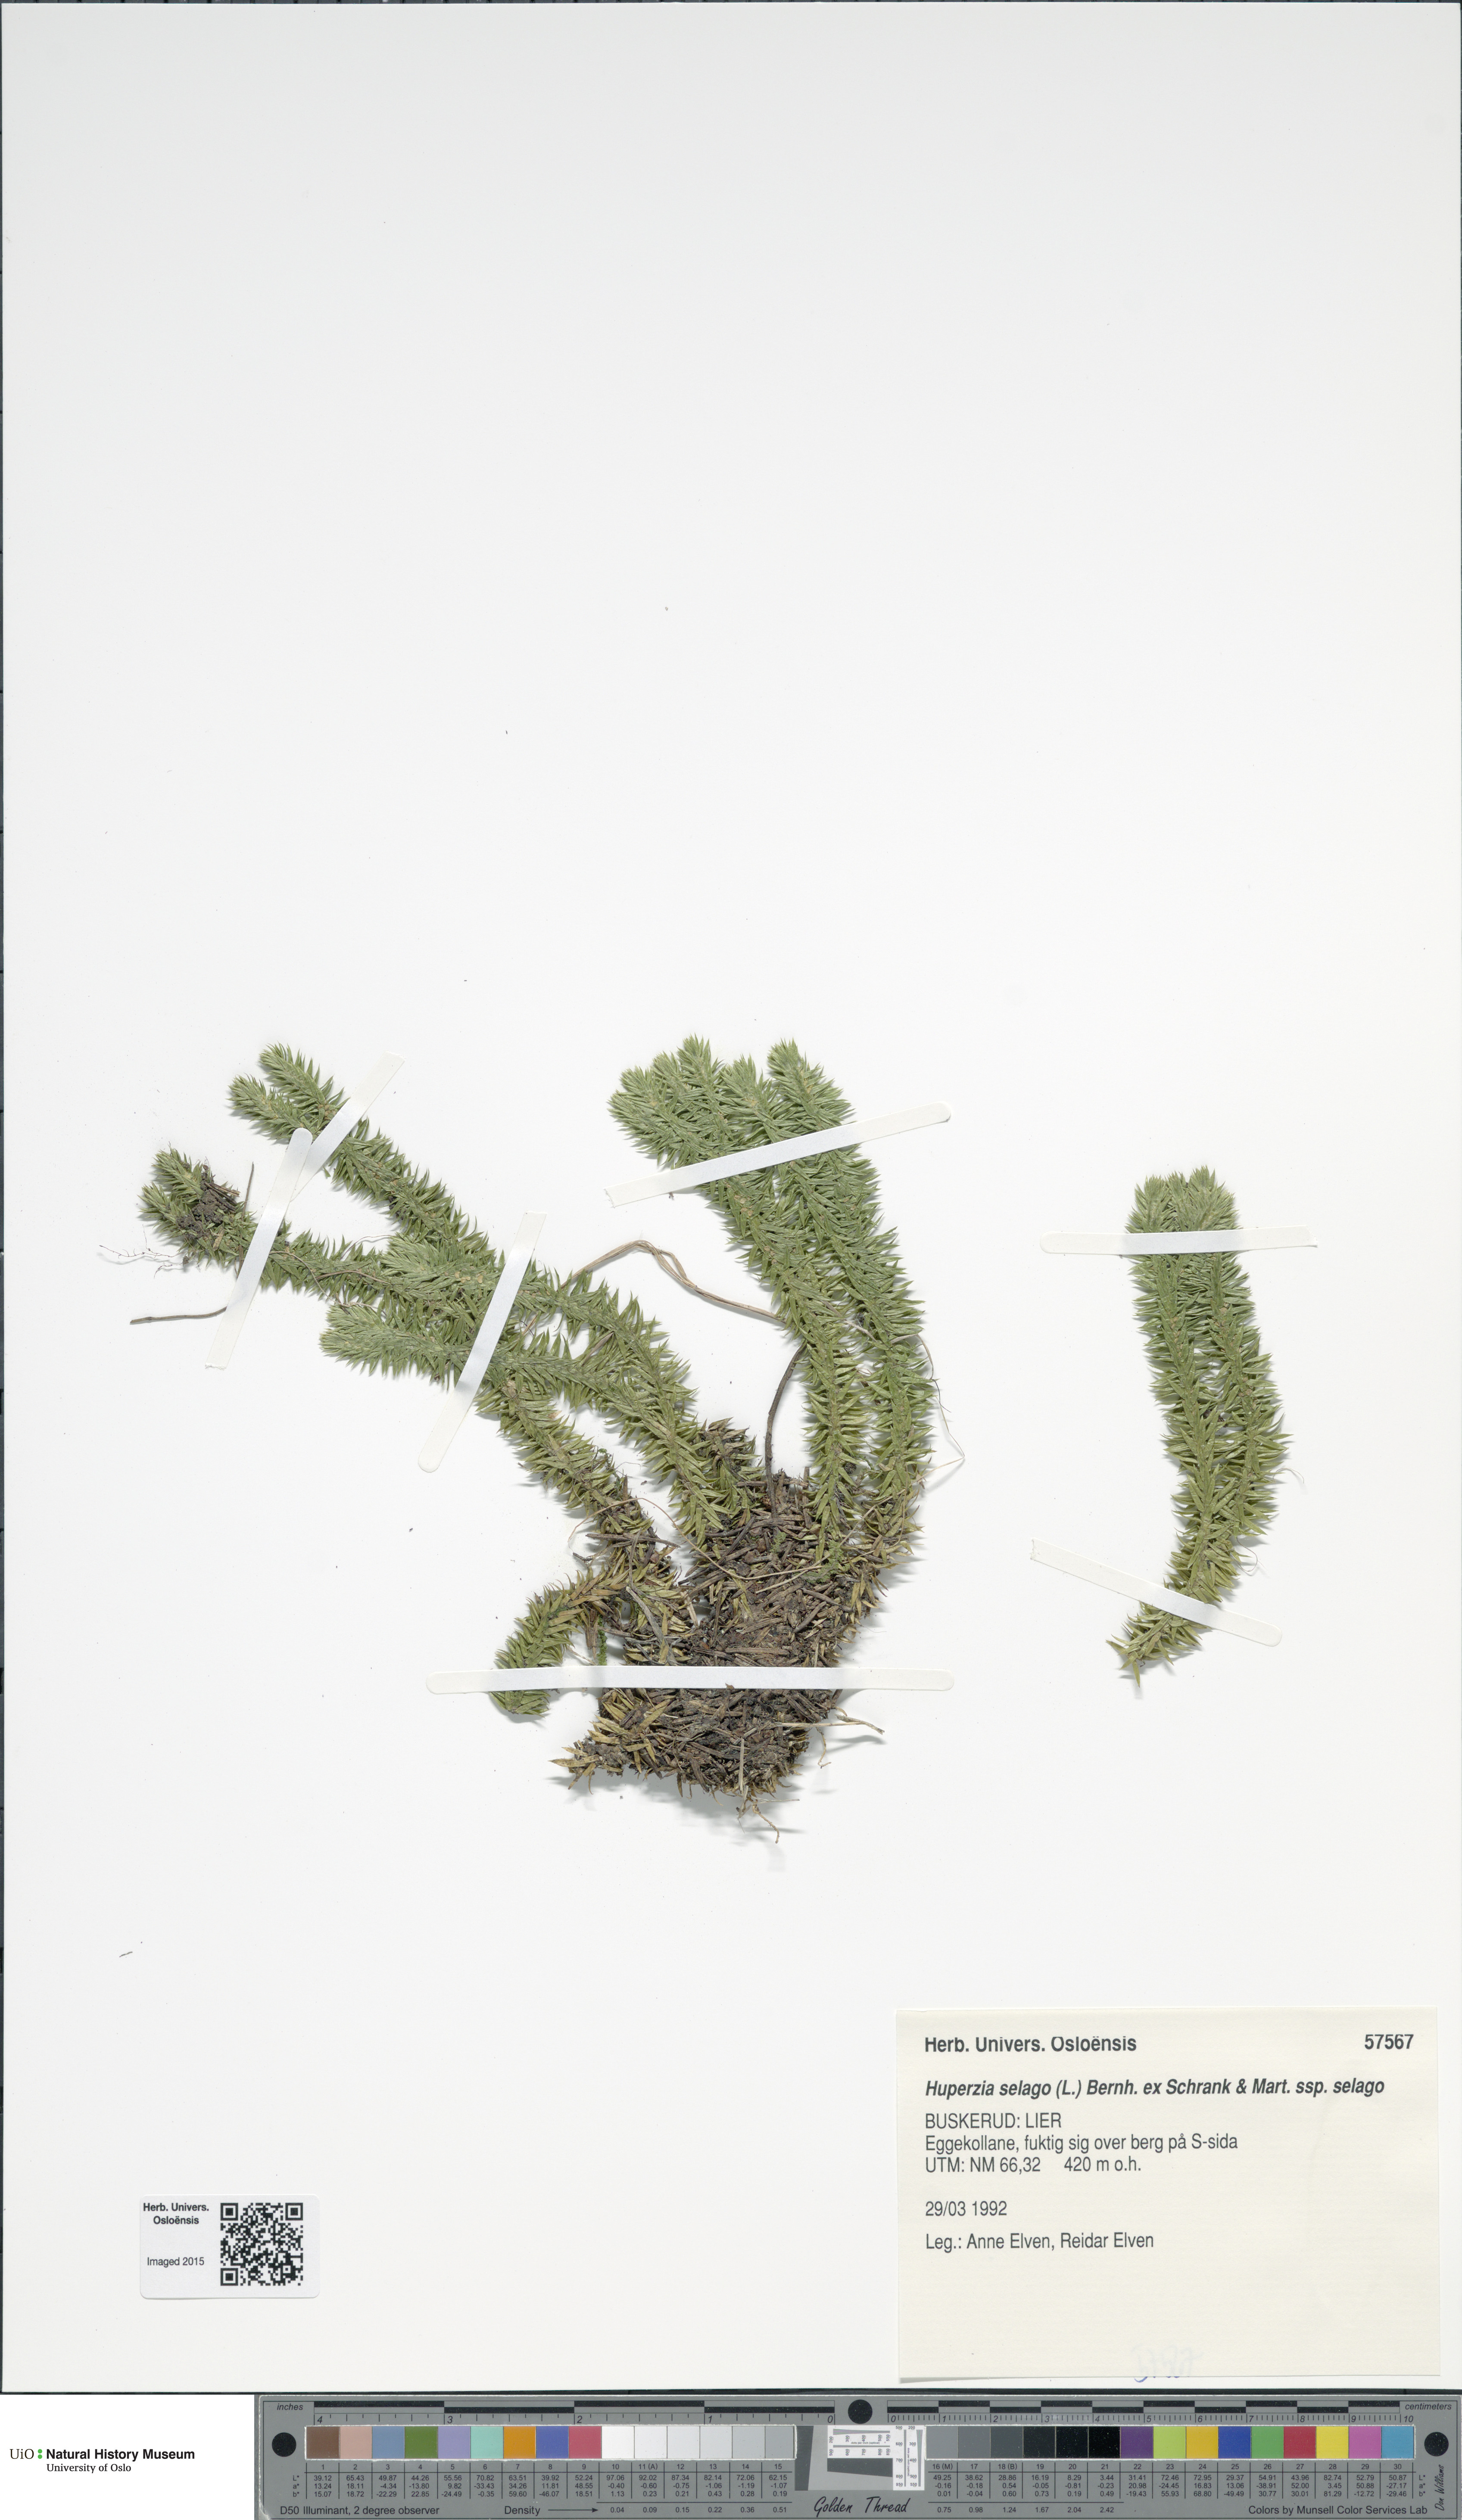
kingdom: Plantae
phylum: Tracheophyta
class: Lycopodiopsida
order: Lycopodiales
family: Lycopodiaceae
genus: Huperzia
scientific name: Huperzia selago
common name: Northern firmoss
